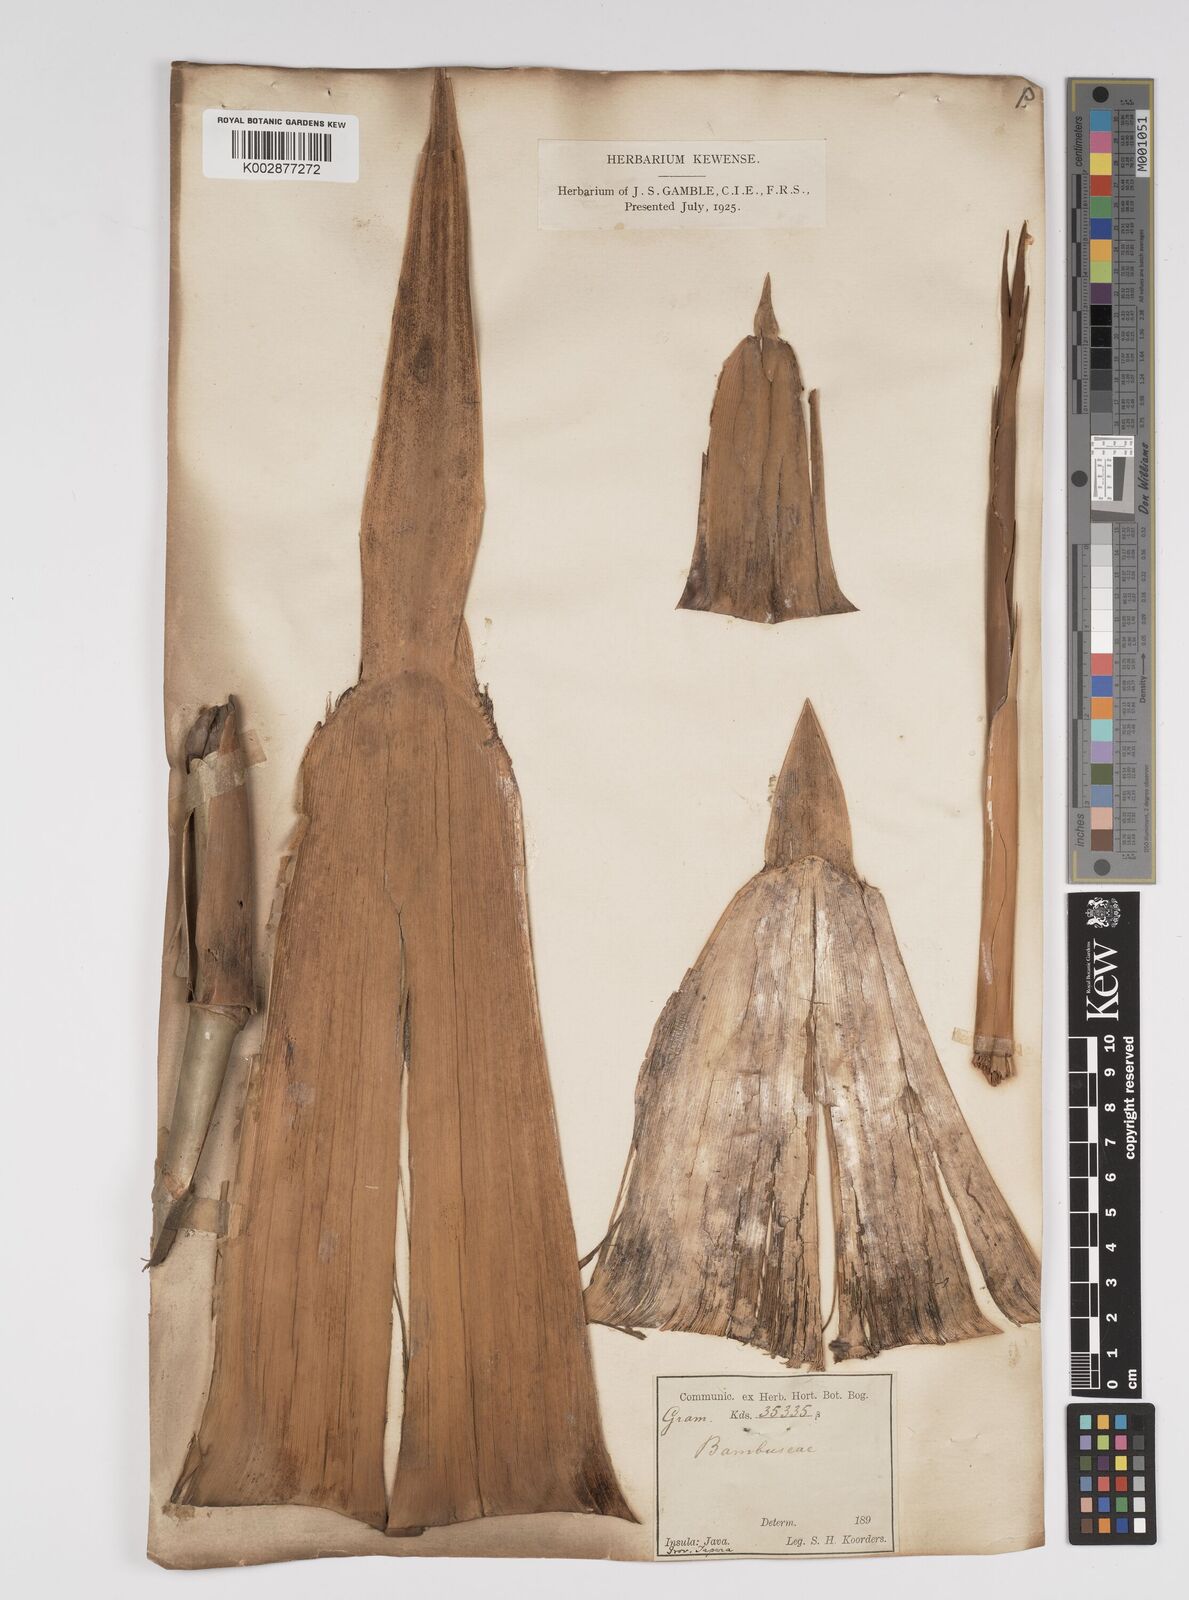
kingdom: Plantae
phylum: Tracheophyta
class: Liliopsida
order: Poales
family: Poaceae
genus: Bambusa
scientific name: Bambusa spinosa
